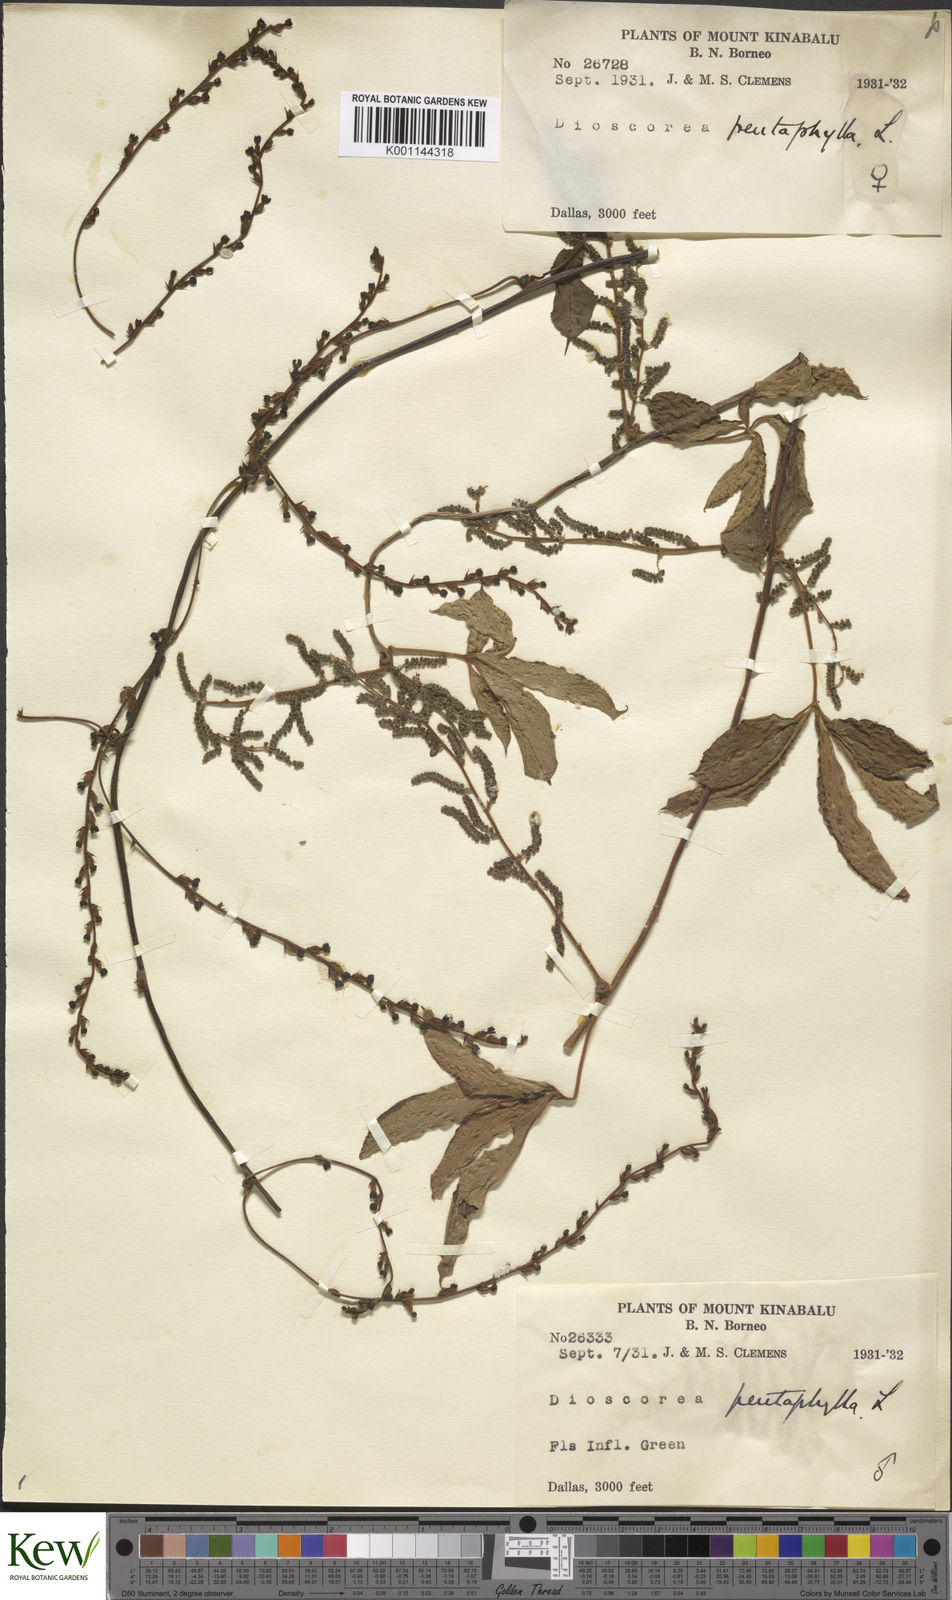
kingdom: Plantae
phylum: Tracheophyta
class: Liliopsida
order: Dioscoreales
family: Dioscoreaceae
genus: Dioscorea
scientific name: Dioscorea pentaphylla
